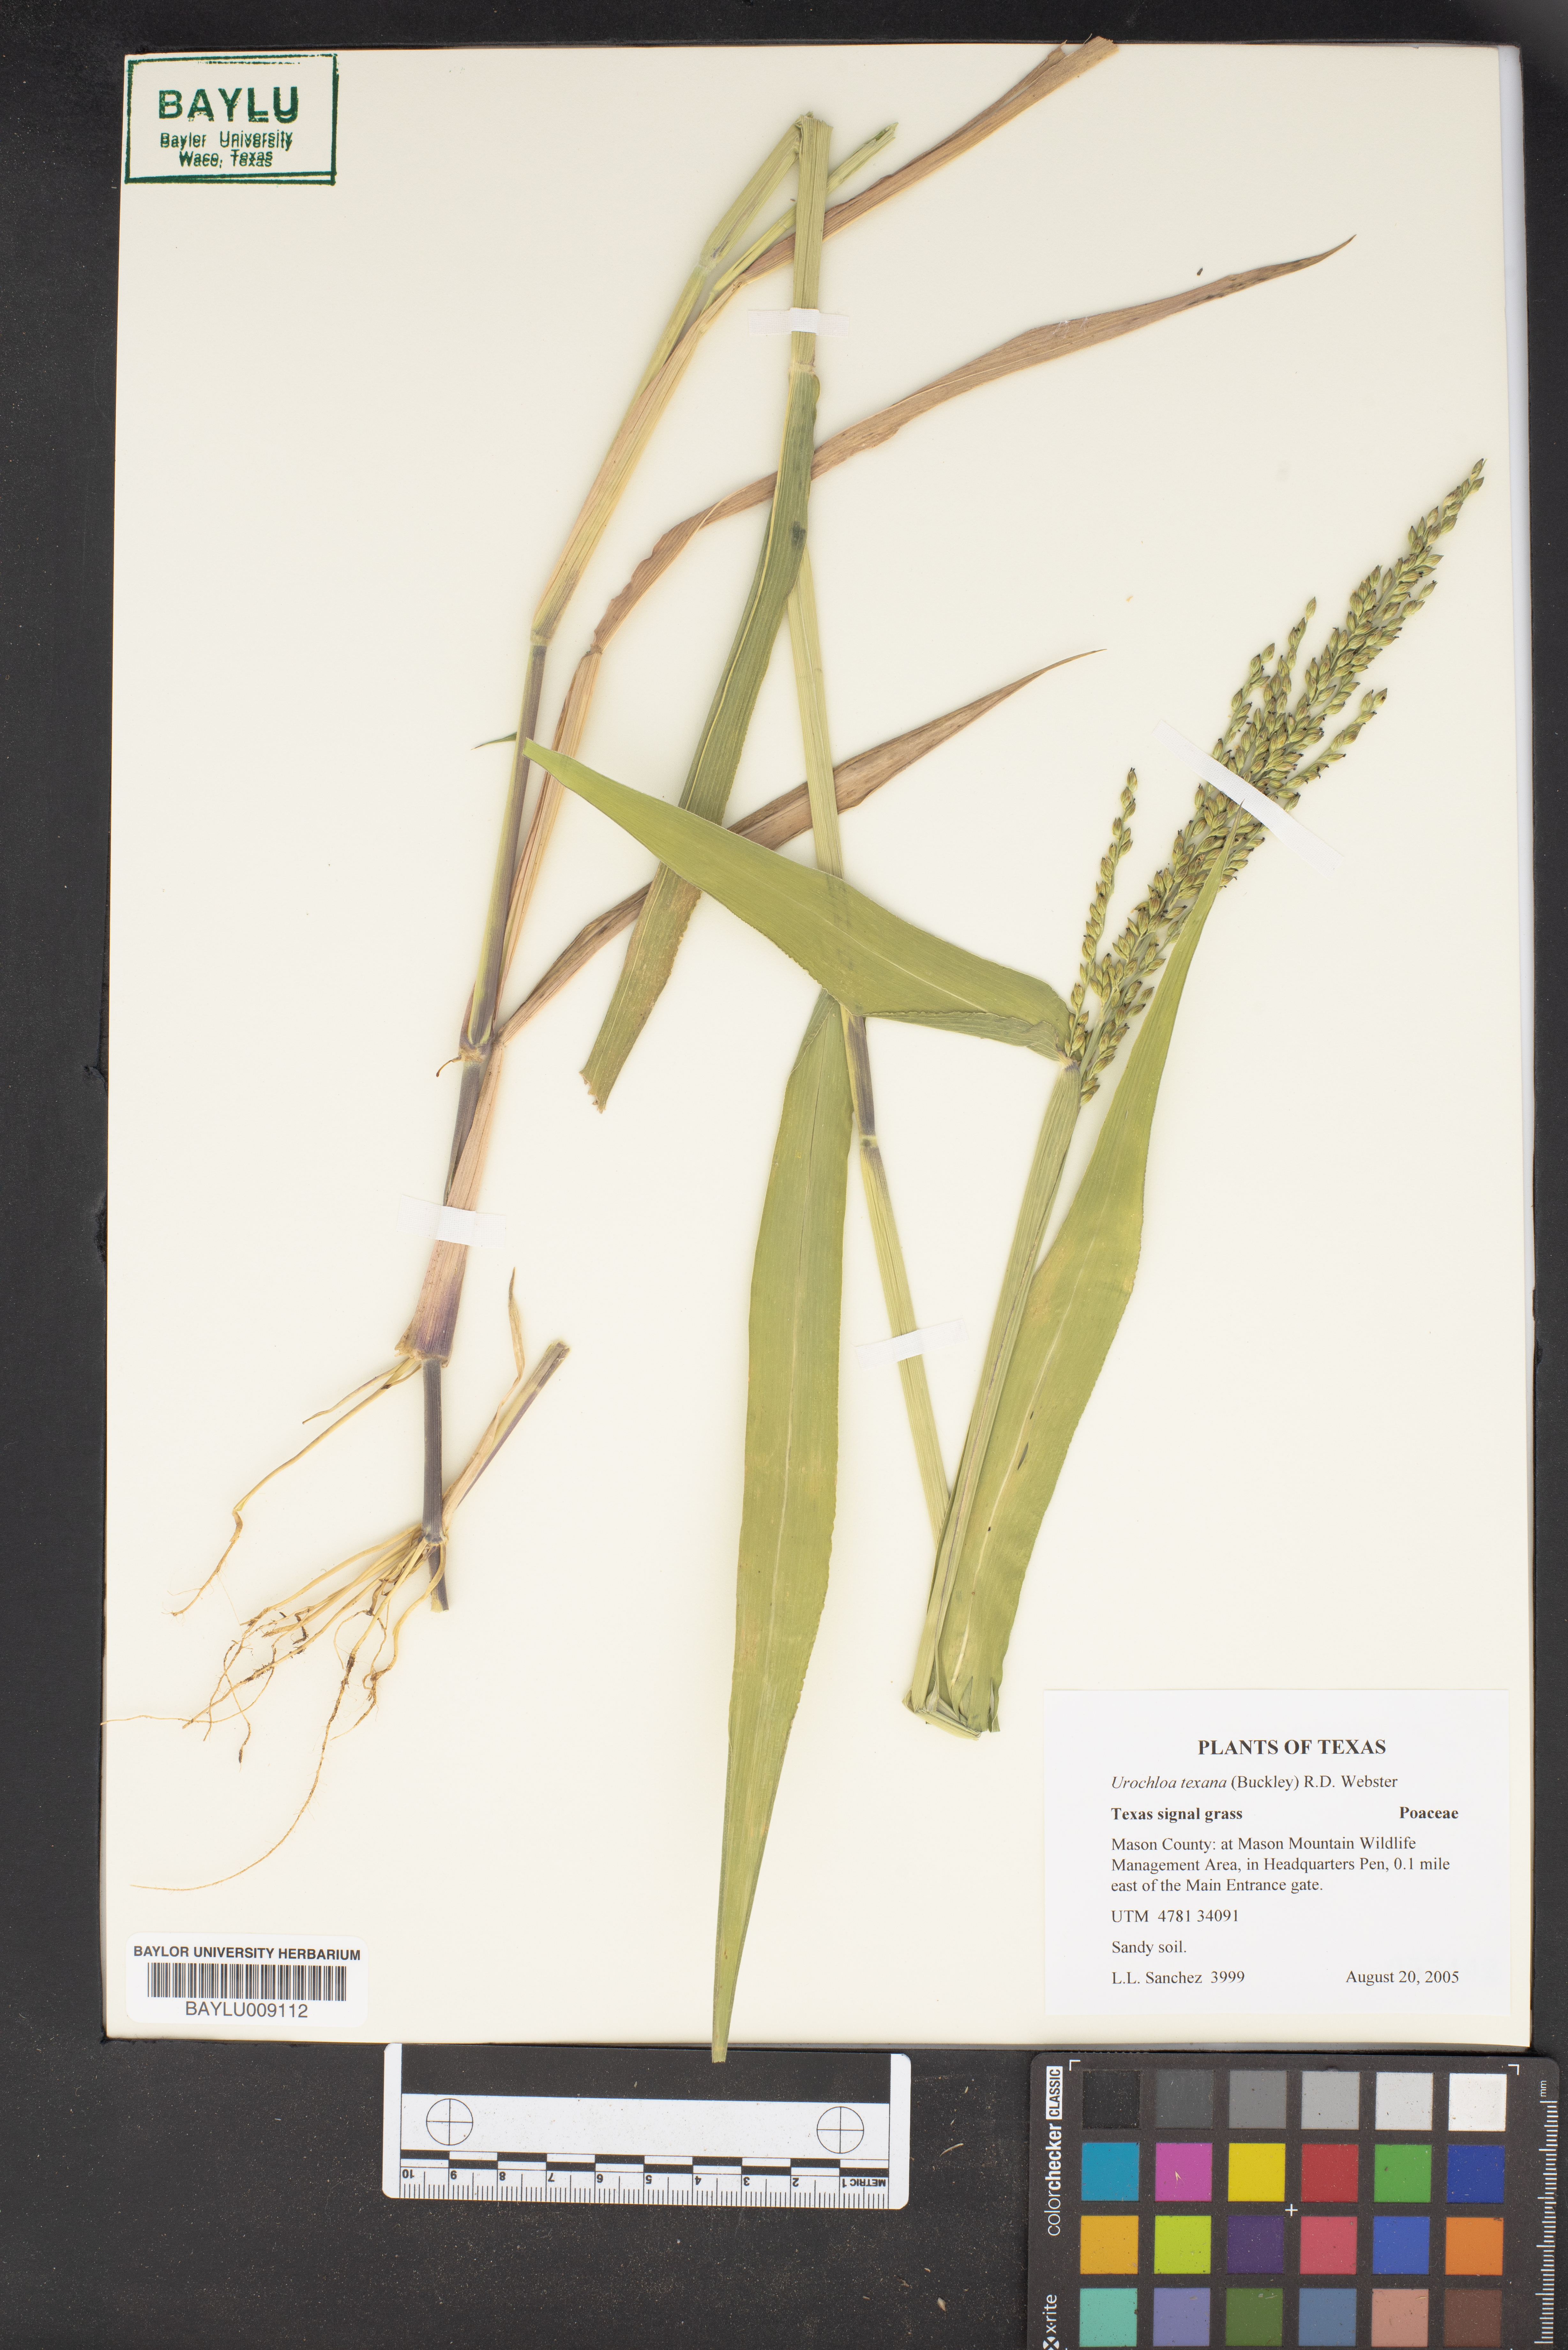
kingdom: Plantae
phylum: Tracheophyta
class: Liliopsida
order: Poales
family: Poaceae
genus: Urochloa
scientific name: Urochloa texana
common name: Texas millet
